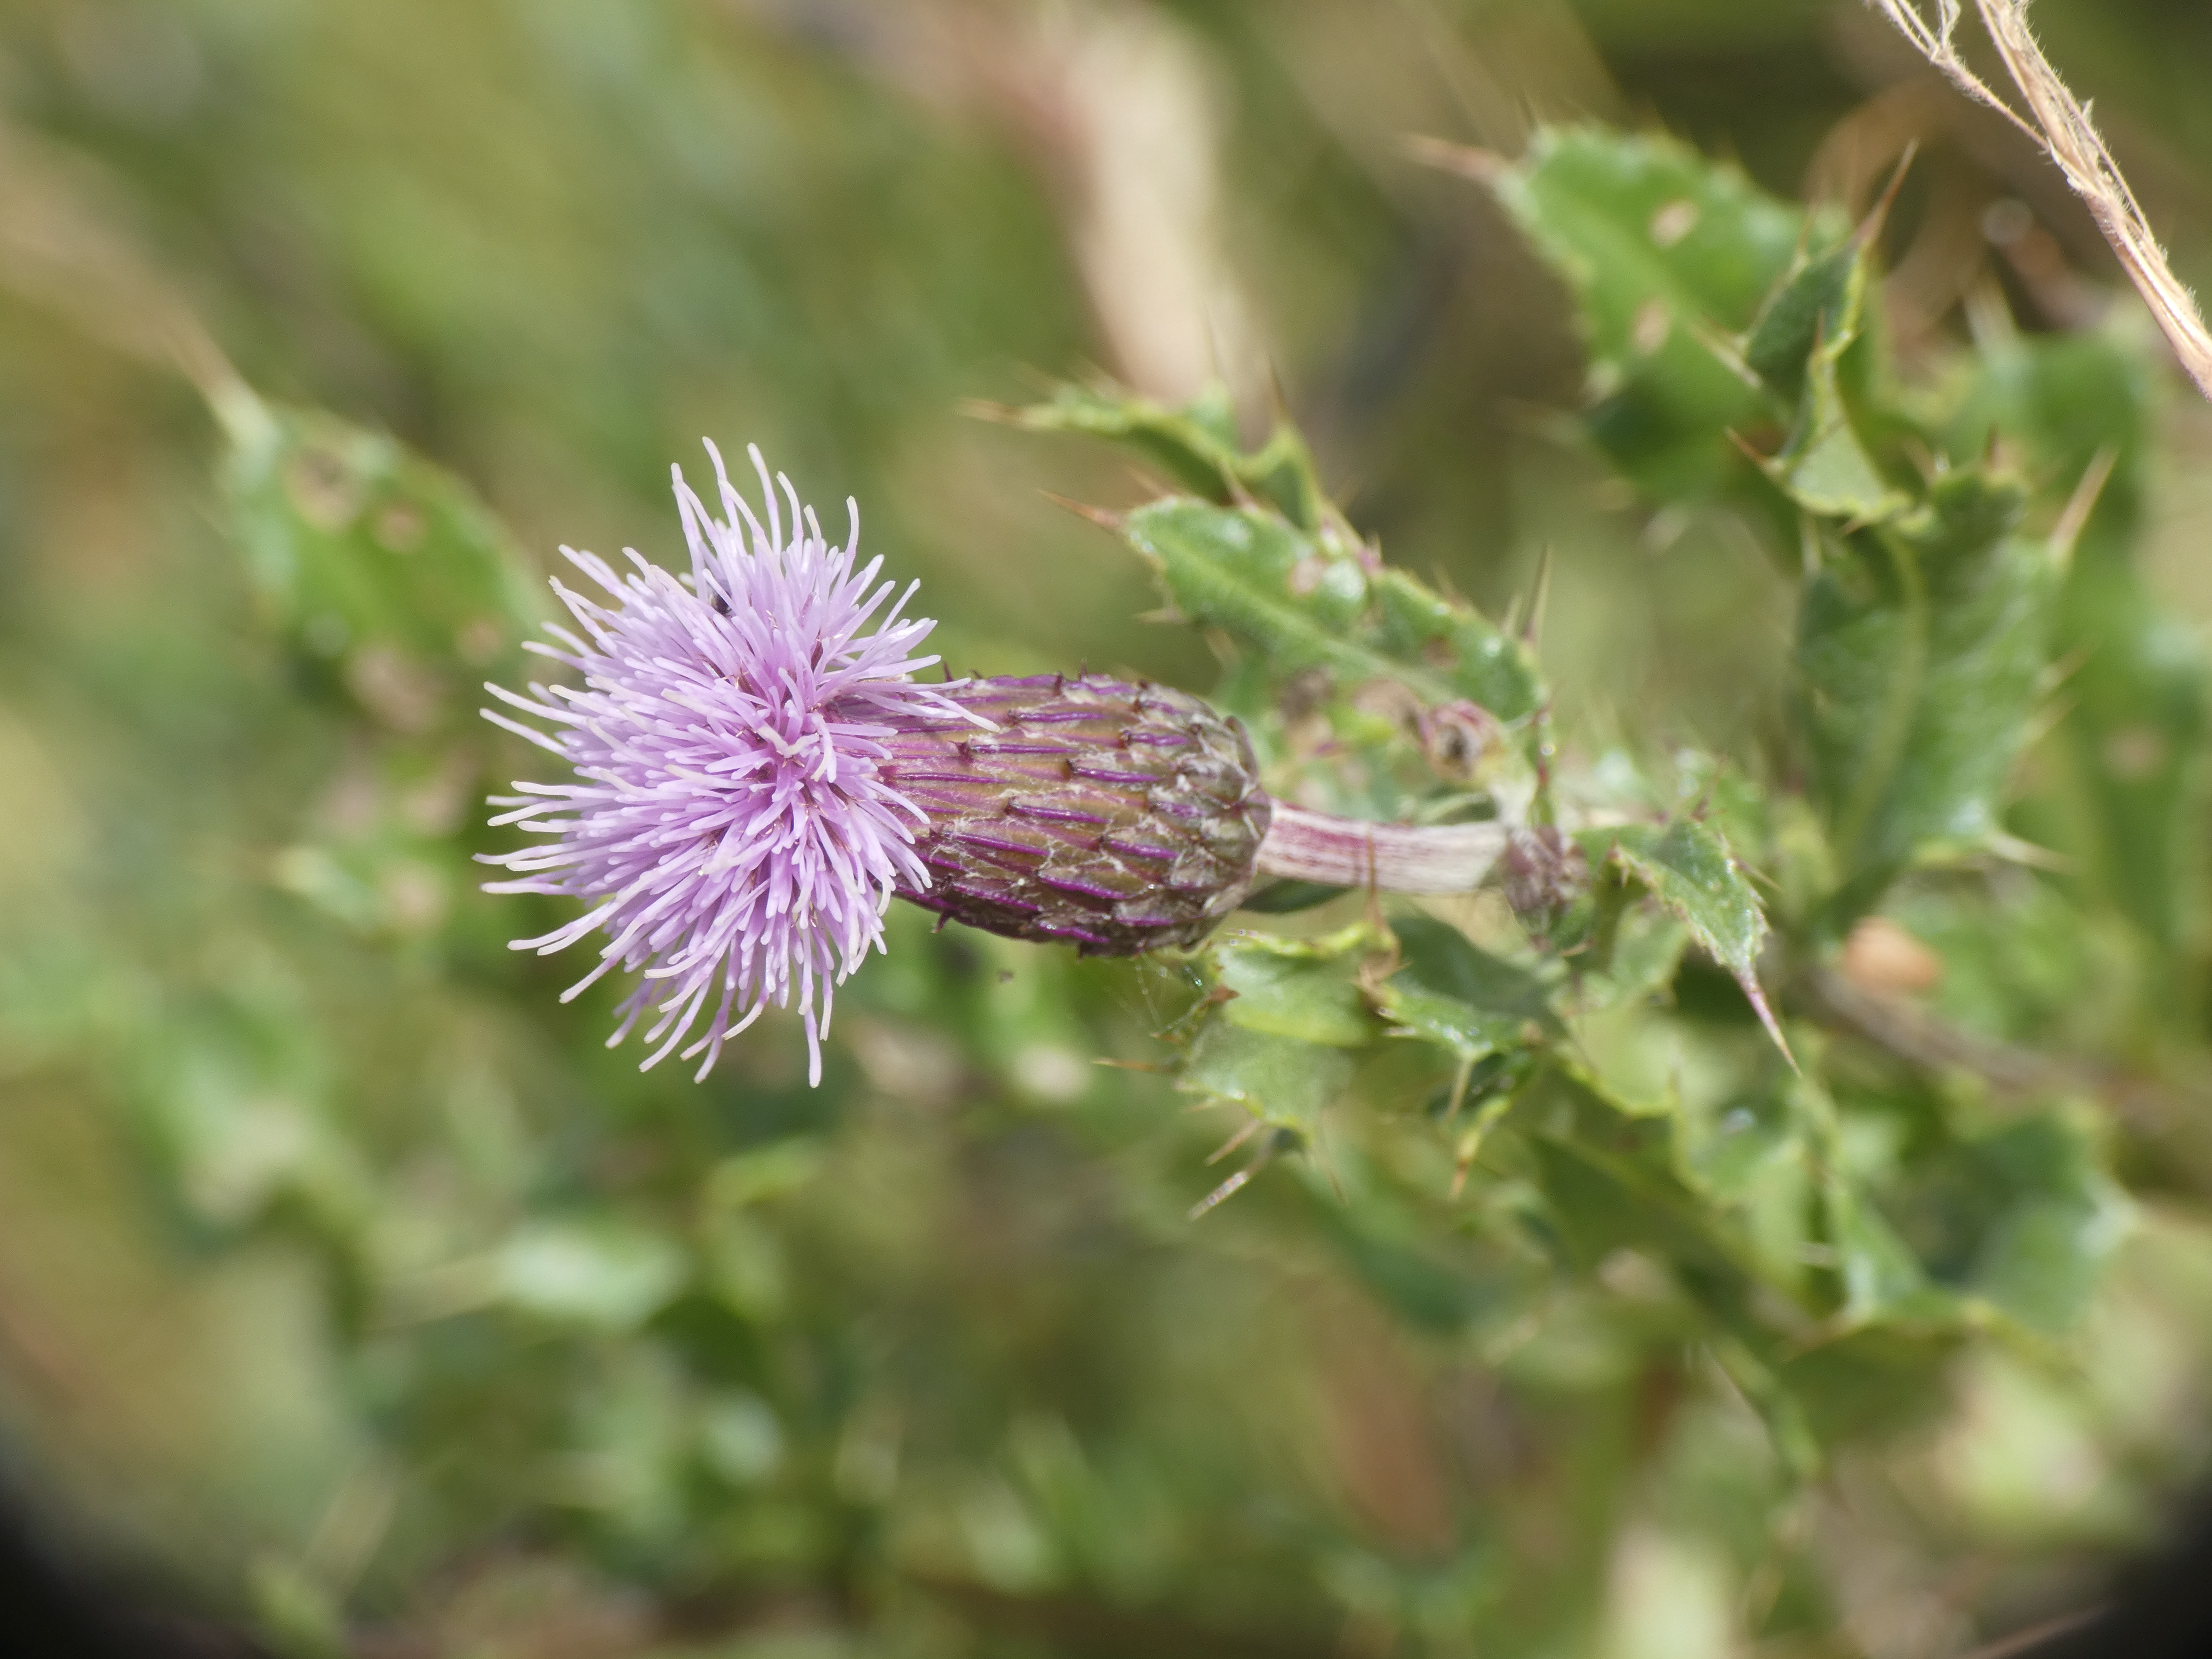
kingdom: Plantae
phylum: Tracheophyta
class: Magnoliopsida
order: Asterales
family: Asteraceae
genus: Cirsium
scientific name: Cirsium arvense
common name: Ager-tidsel
